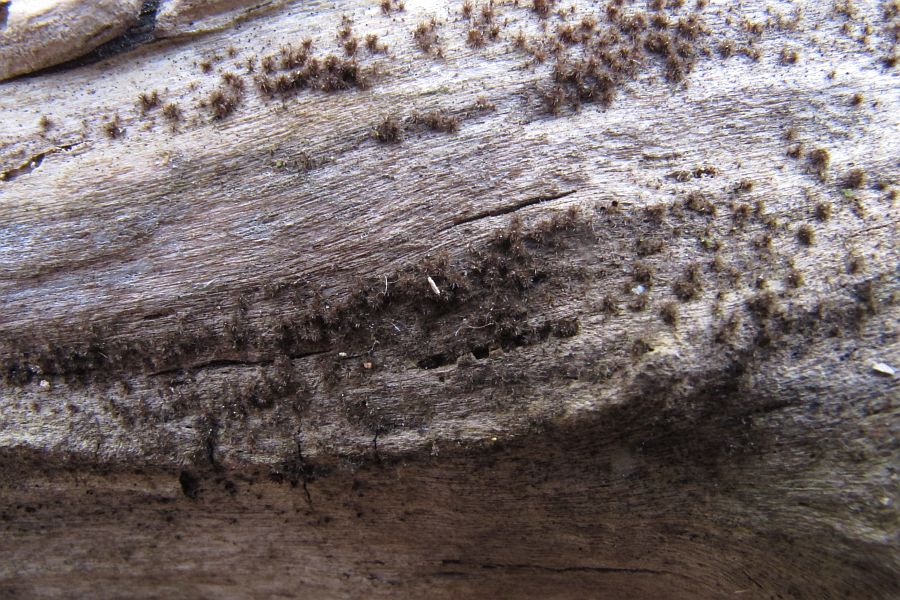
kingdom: Fungi
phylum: Ascomycota
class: Sordariomycetes
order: Sordariales
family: Helminthosphaeriaceae
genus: Echinosphaeria
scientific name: Echinosphaeria canescens
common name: brun børstekerne
